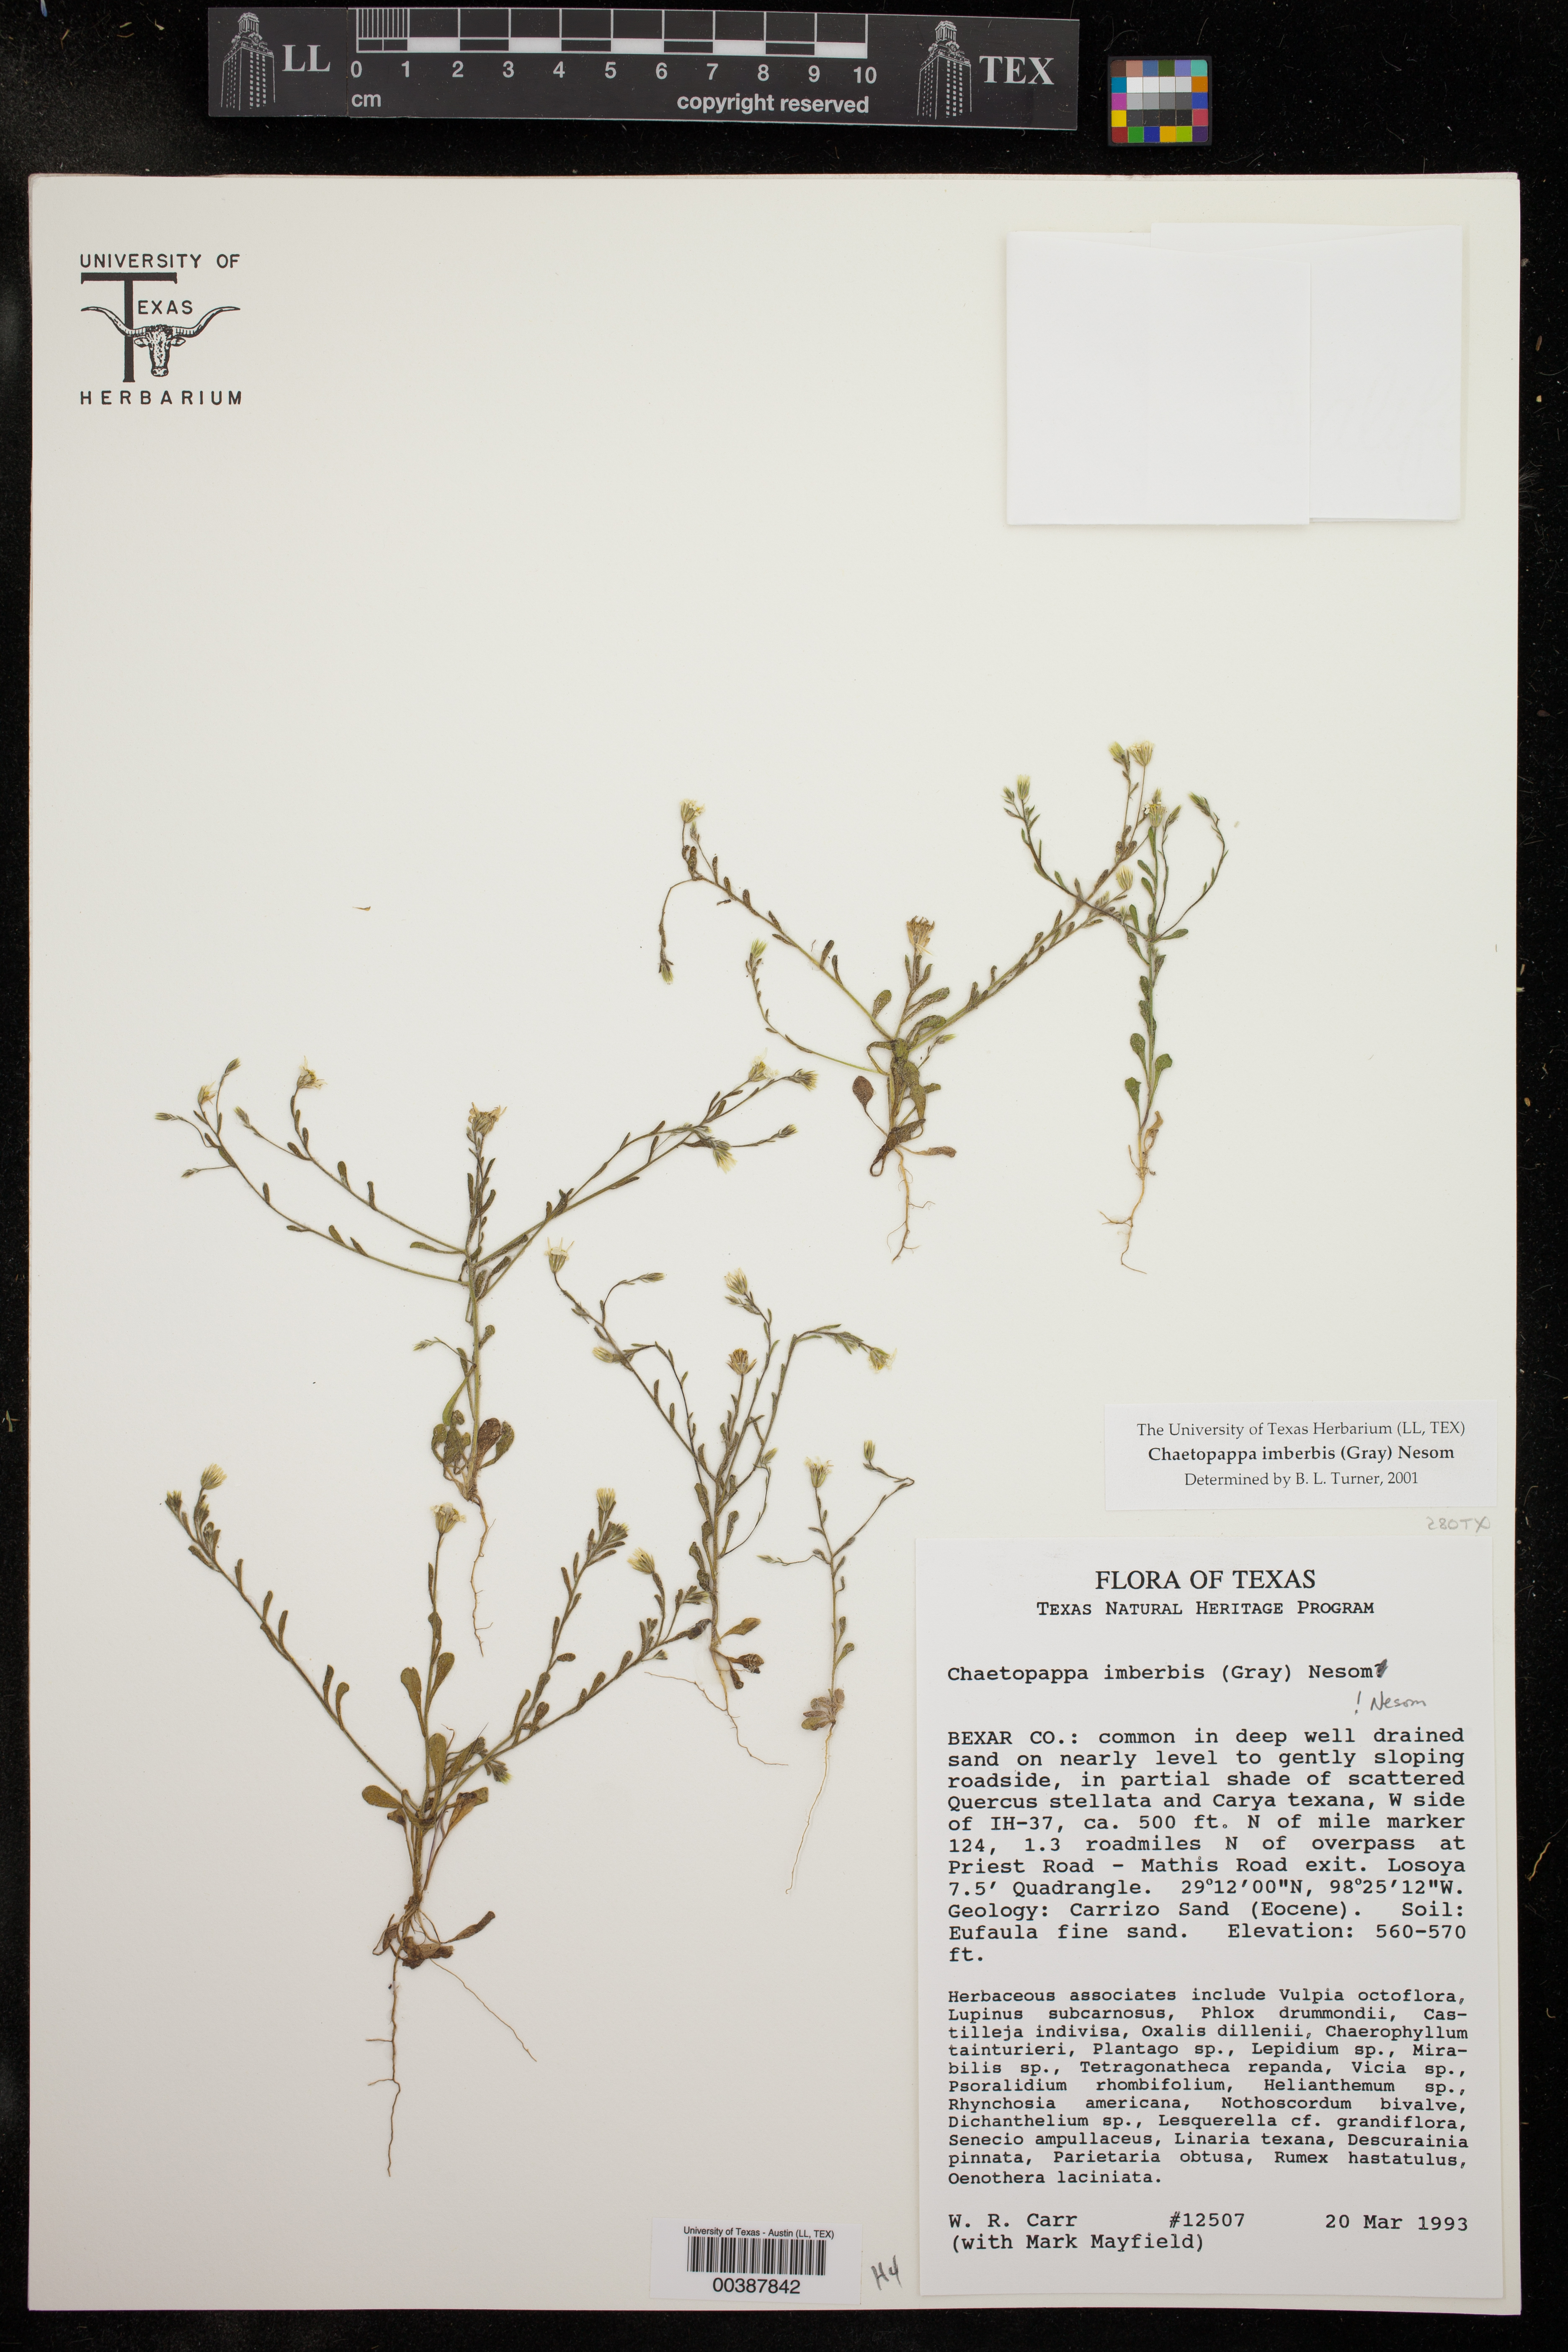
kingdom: Plantae
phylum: Tracheophyta
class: Magnoliopsida
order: Asterales
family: Asteraceae
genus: Chaetopappa
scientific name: Chaetopappa imberbis
